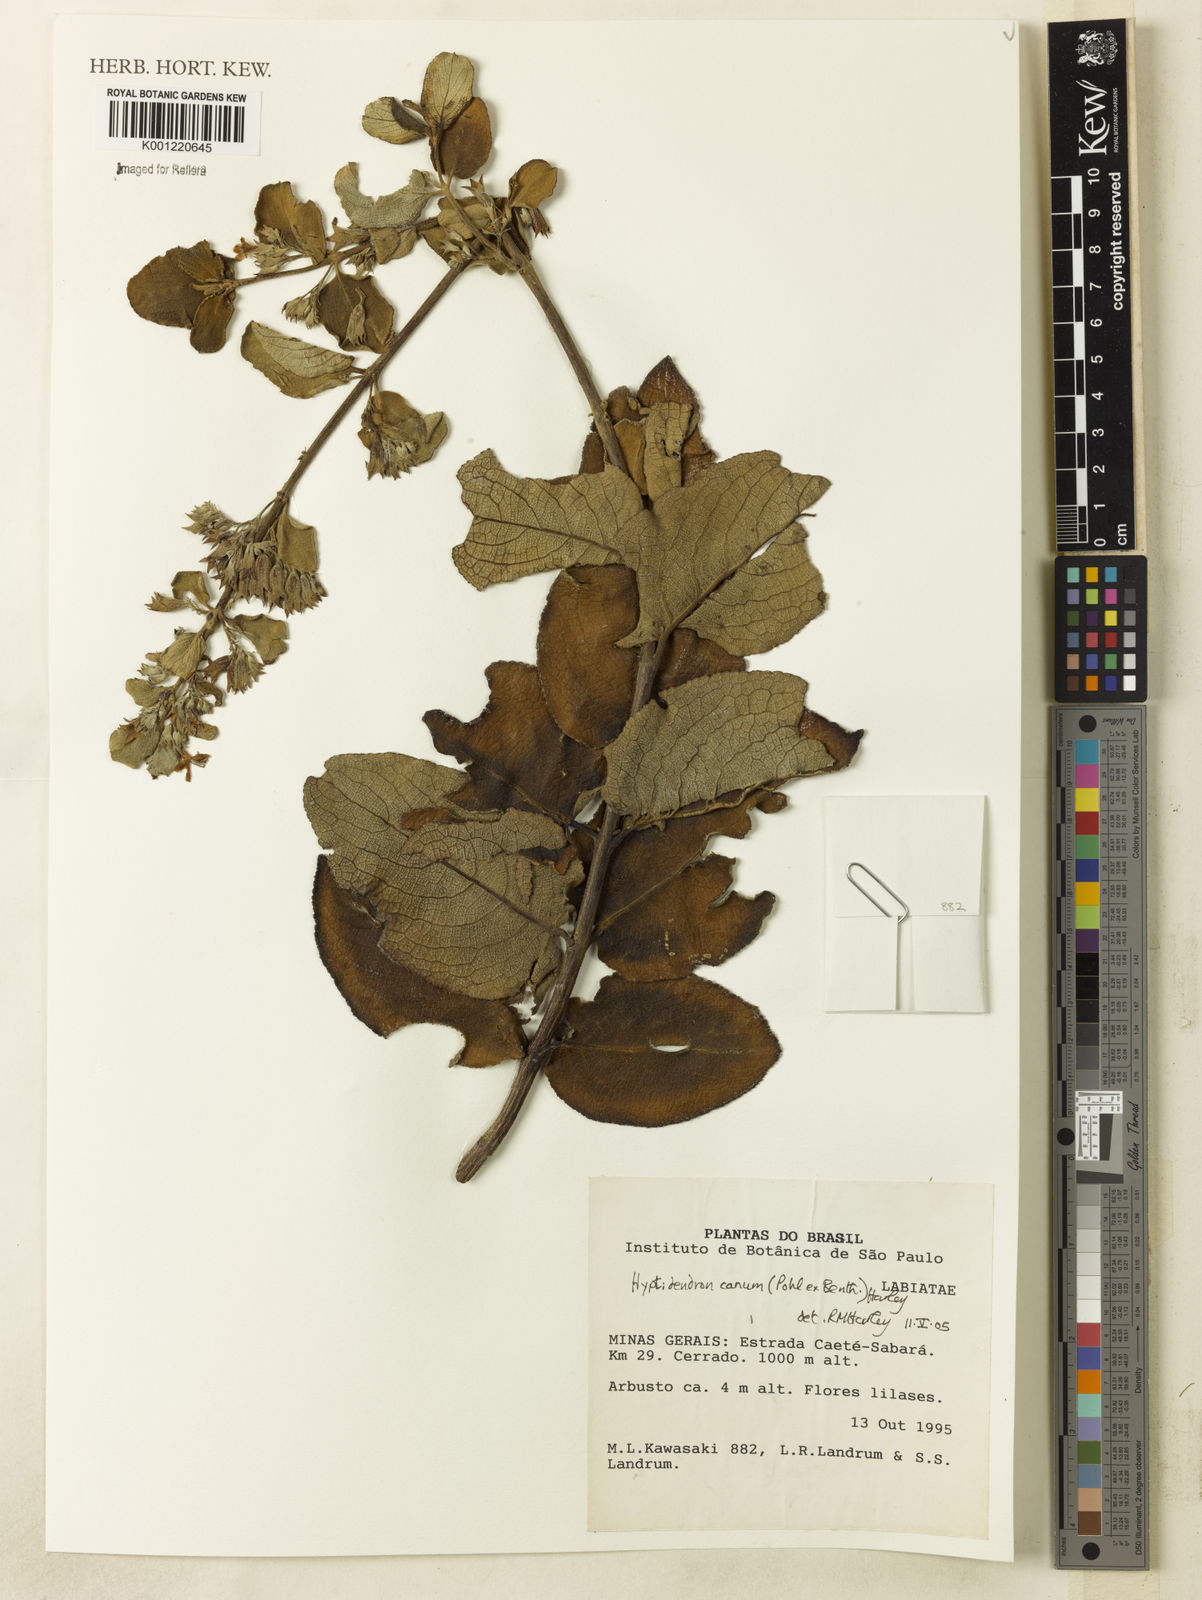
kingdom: Plantae
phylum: Tracheophyta
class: Magnoliopsida
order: Lamiales
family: Lamiaceae
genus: Hyptidendron
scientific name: Hyptidendron canum
